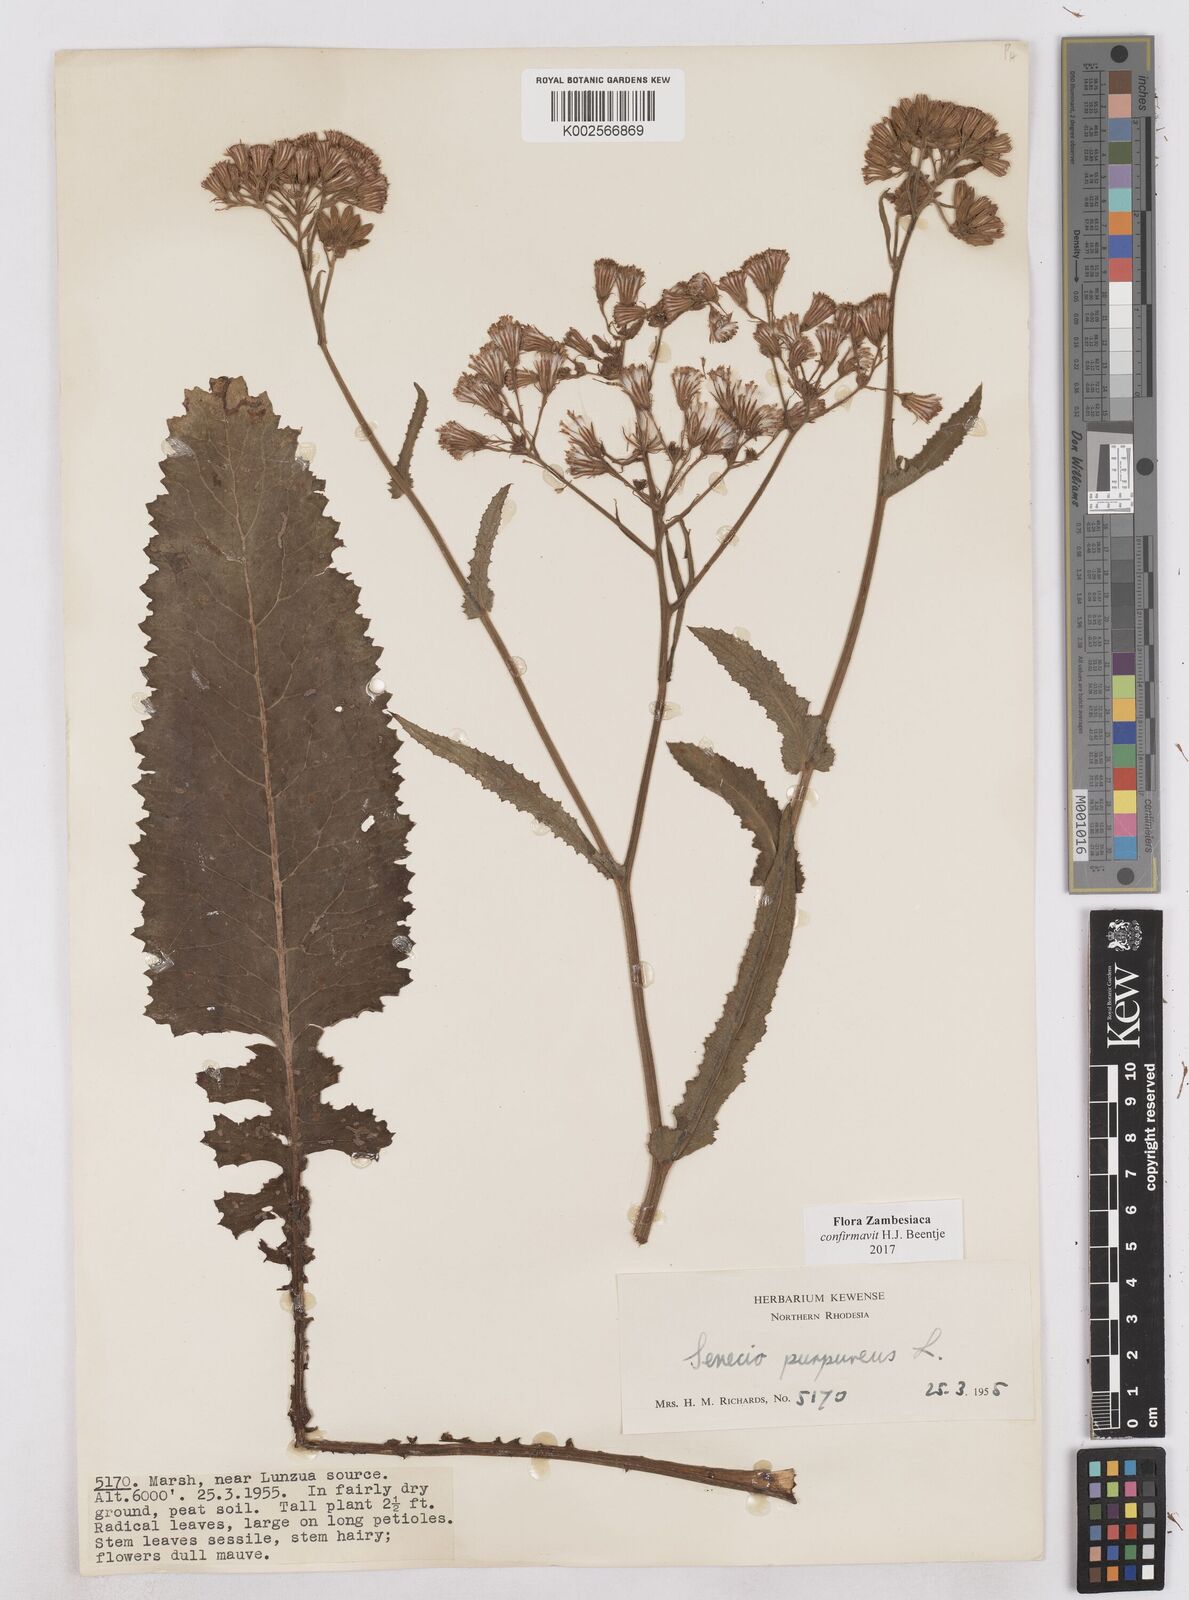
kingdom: Plantae
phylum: Tracheophyta
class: Magnoliopsida
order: Asterales
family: Asteraceae
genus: Senecio
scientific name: Senecio purpureus
